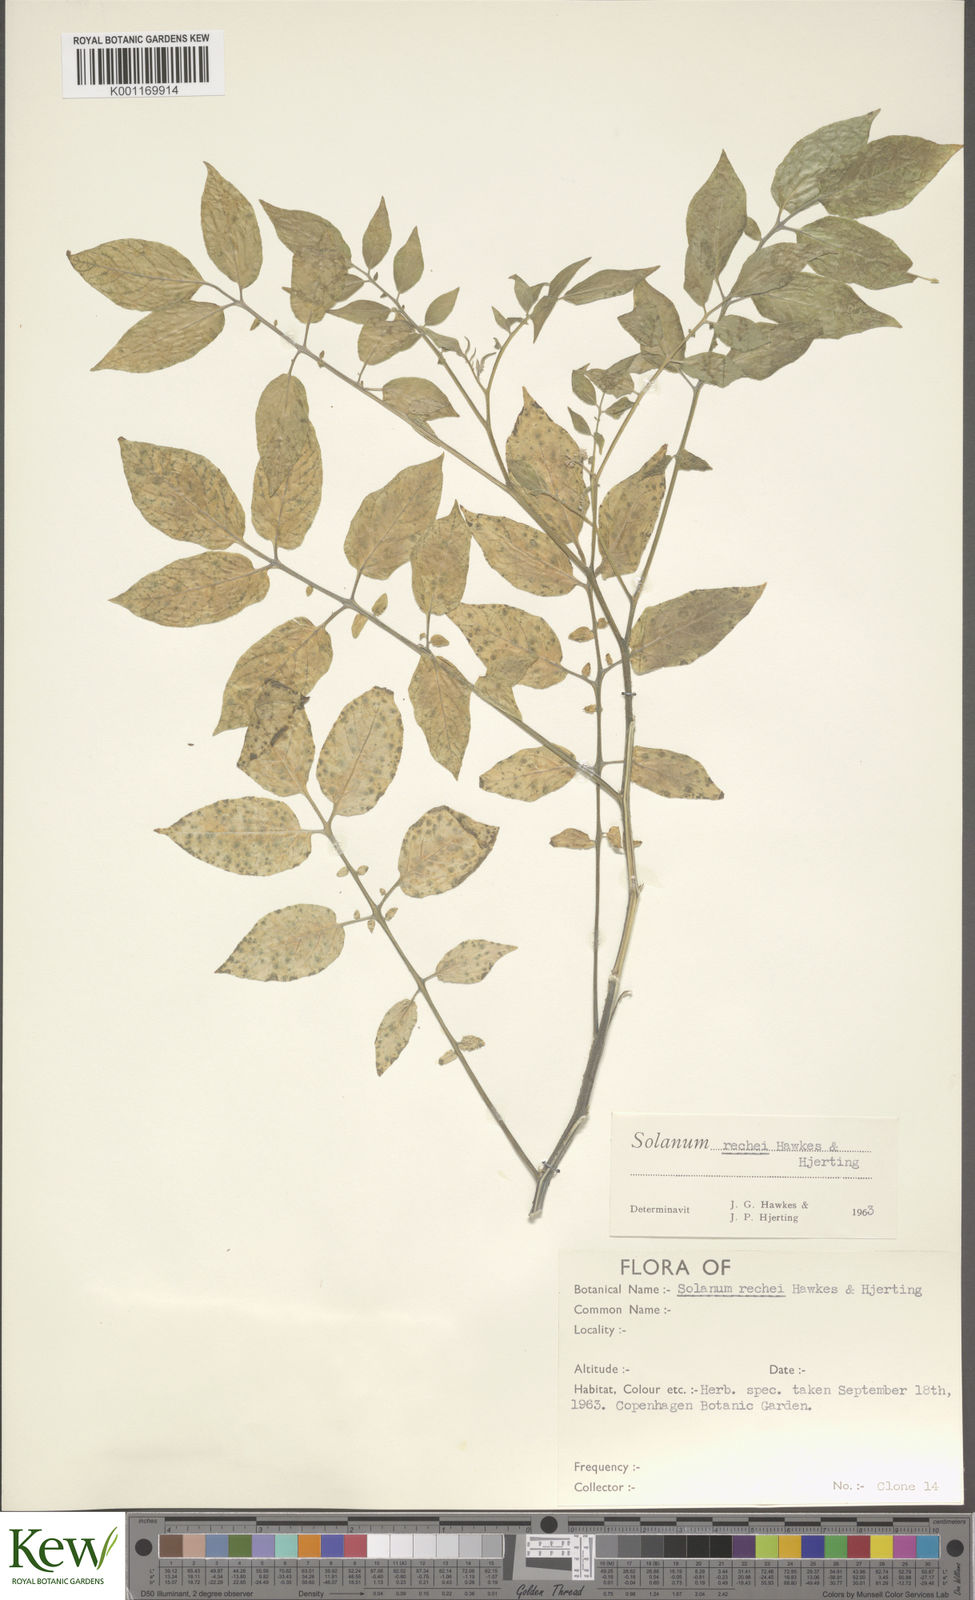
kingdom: Plantae
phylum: Tracheophyta
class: Magnoliopsida
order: Solanales
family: Solanaceae
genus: Solanum
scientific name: Solanum rechei
